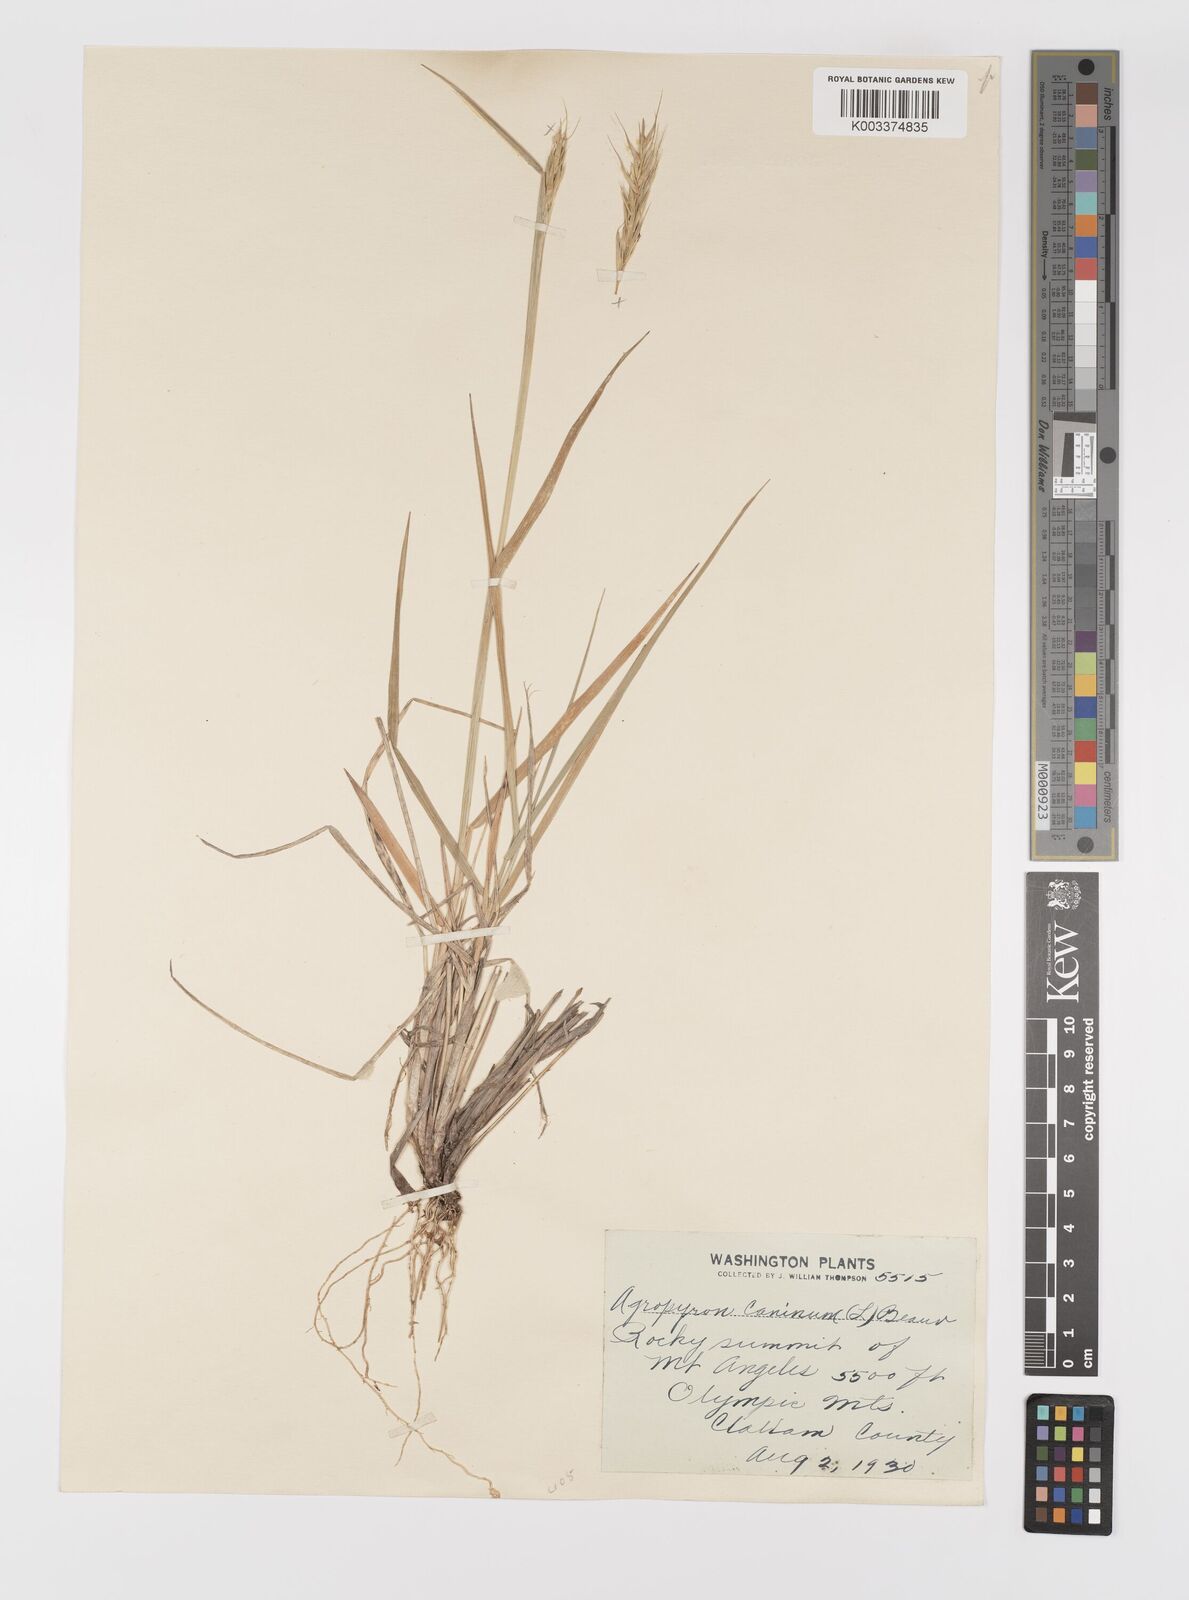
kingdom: Plantae
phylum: Tracheophyta
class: Liliopsida
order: Poales
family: Poaceae
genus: Elymus
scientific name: Elymus violaceus
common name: Arctic wheatgrass
